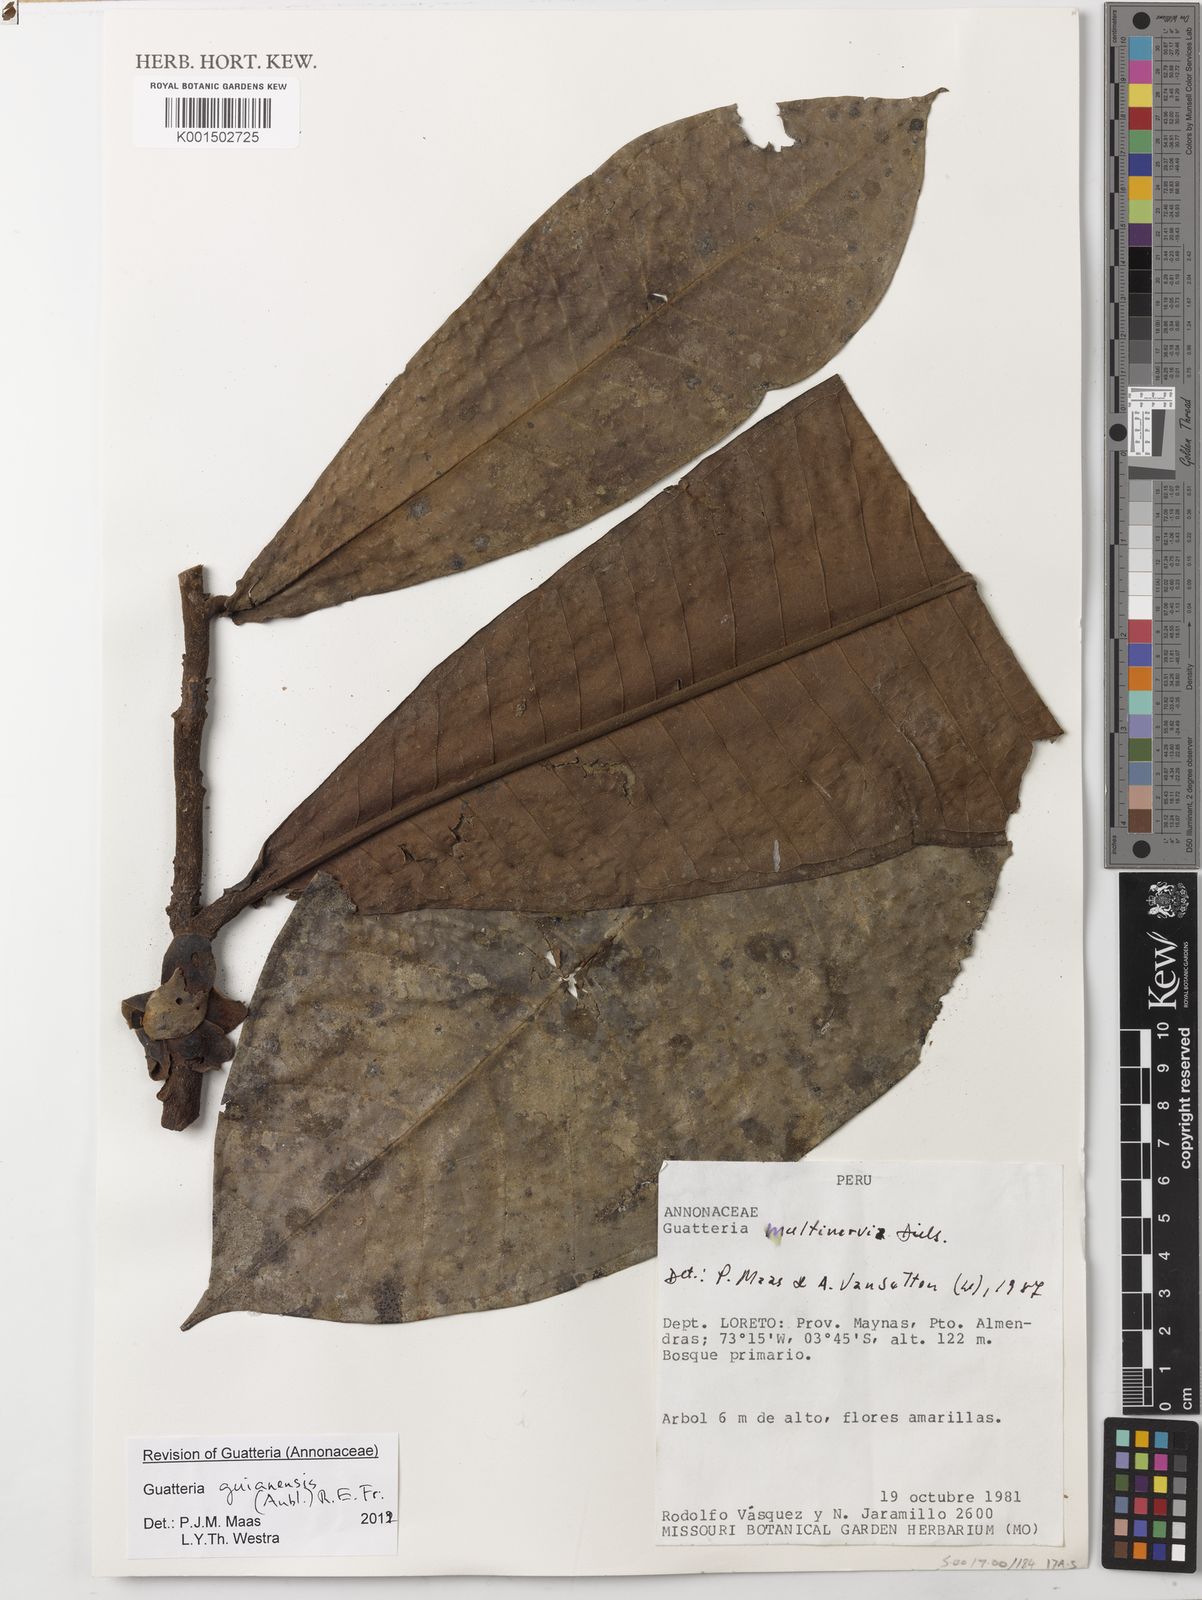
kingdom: Plantae
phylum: Tracheophyta
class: Magnoliopsida
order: Magnoliales
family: Annonaceae
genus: Guatteria
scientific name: Guatteria guianensis
